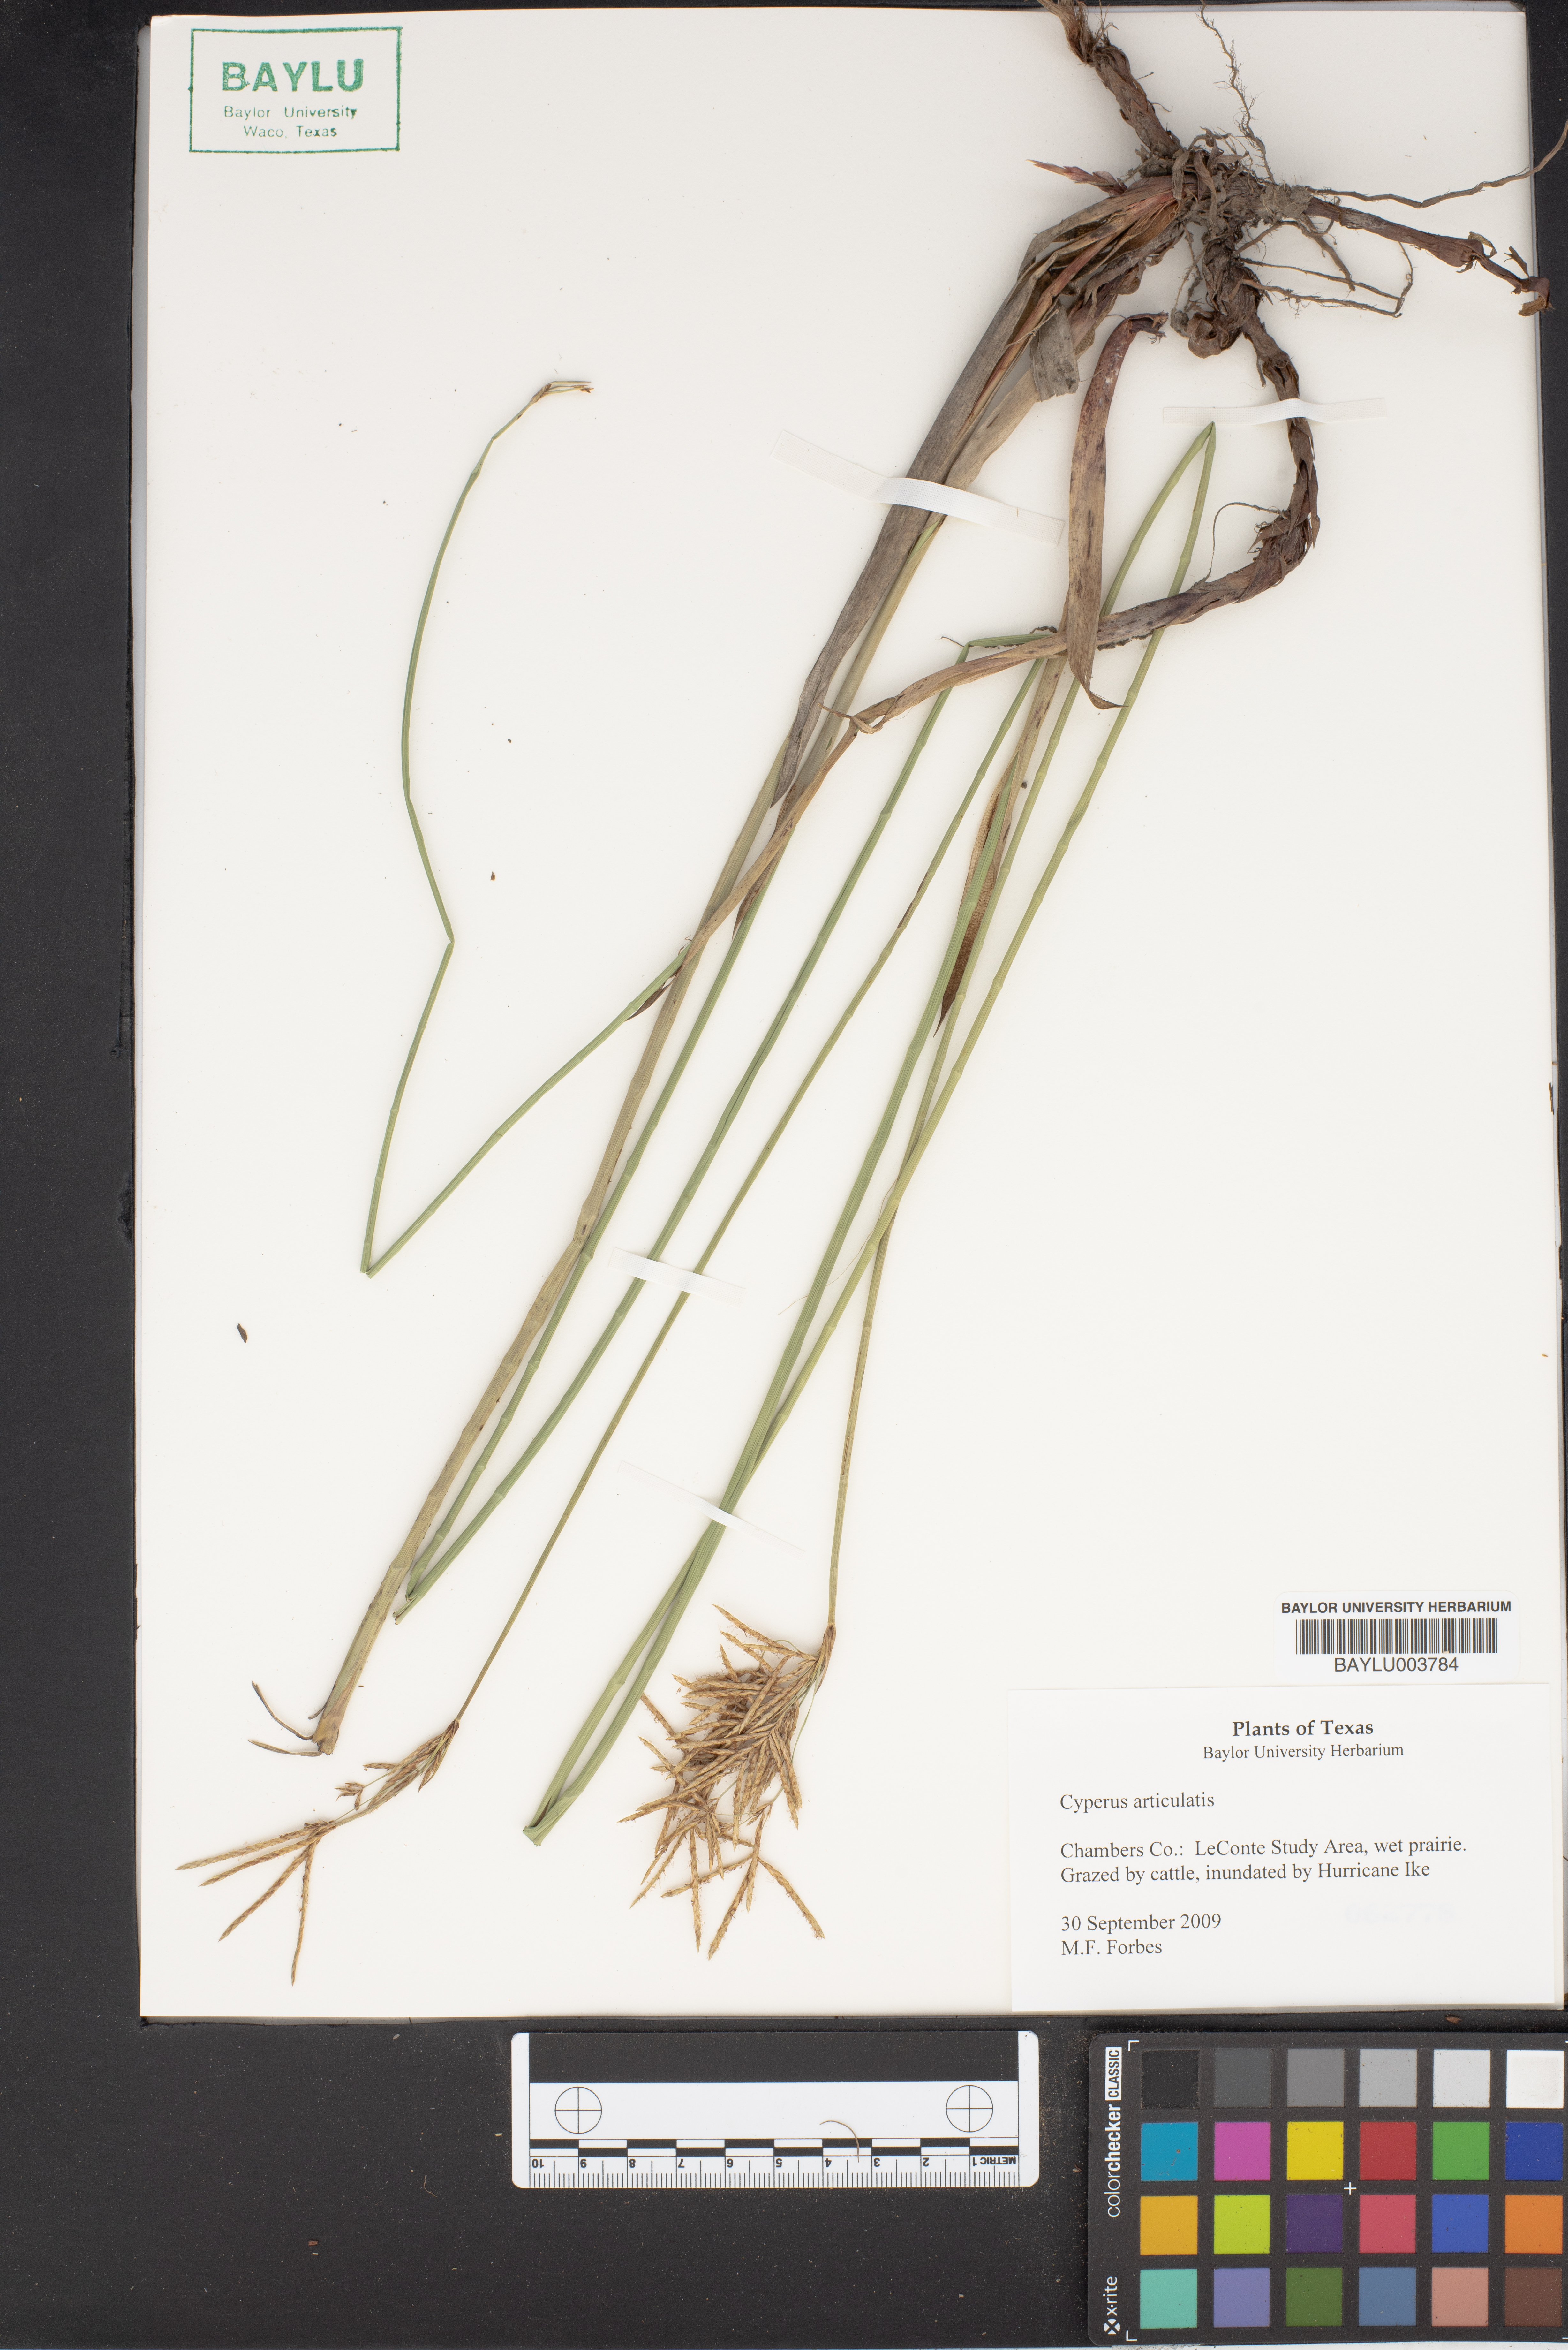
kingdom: Plantae
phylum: Tracheophyta
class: Liliopsida
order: Poales
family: Cyperaceae
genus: Cyperus
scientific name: Cyperus articulatus
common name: Jointed flatsedge
